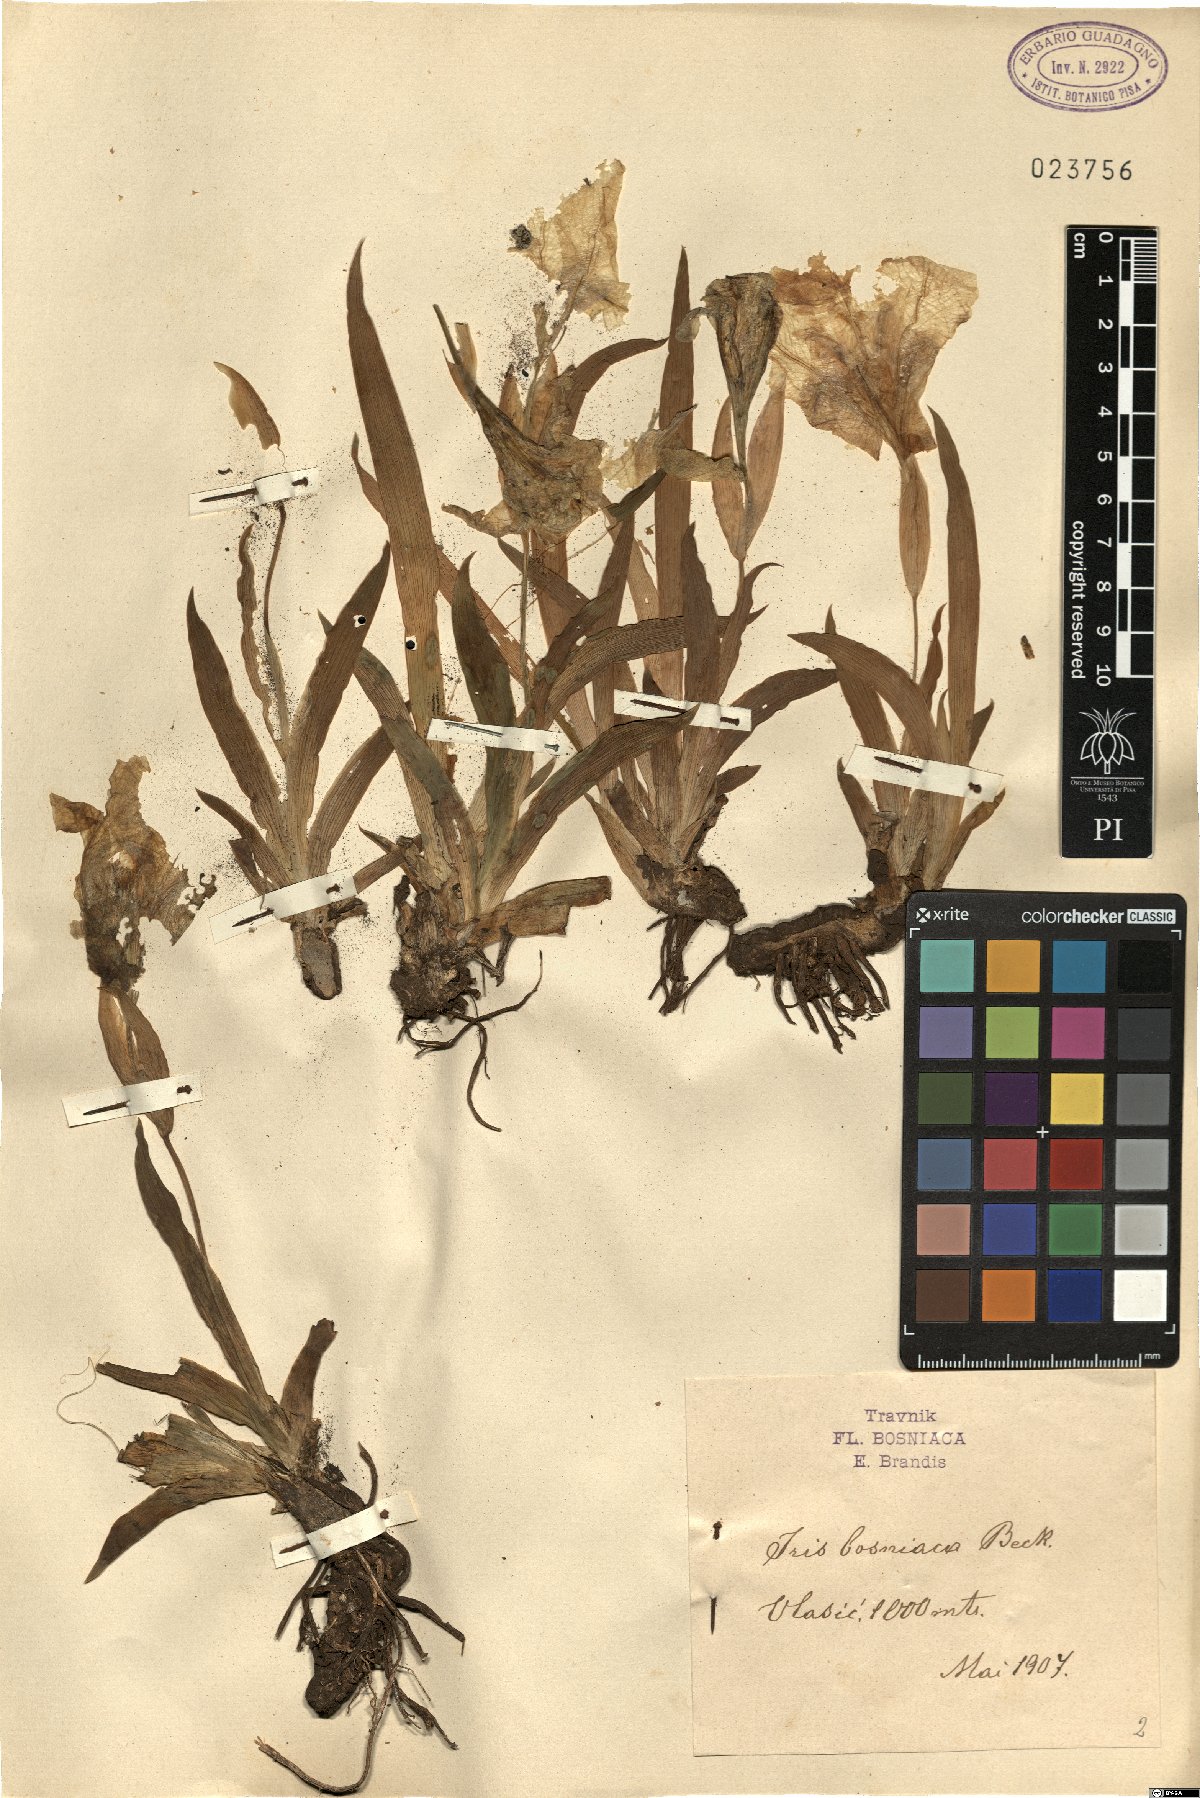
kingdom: Plantae
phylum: Tracheophyta
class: Liliopsida
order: Asparagales
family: Iridaceae
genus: Iris
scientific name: Iris bosniaca
